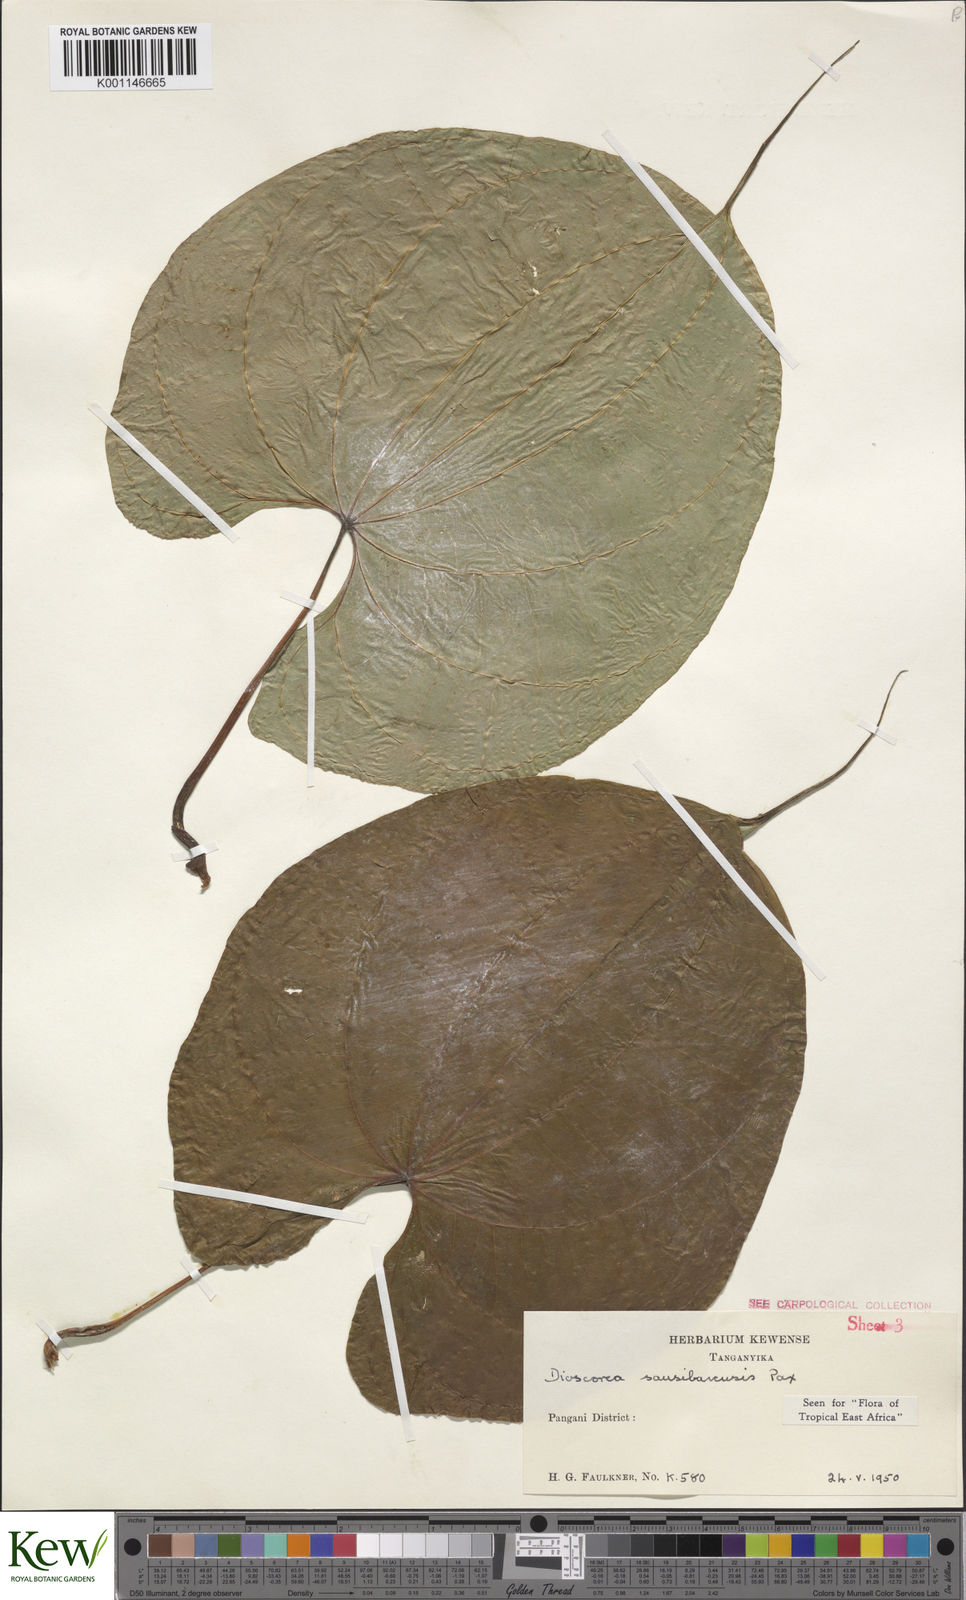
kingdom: Plantae
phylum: Tracheophyta
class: Liliopsida
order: Dioscoreales
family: Dioscoreaceae
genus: Dioscorea
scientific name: Dioscorea sansibarensis
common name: Zanzibar yam
